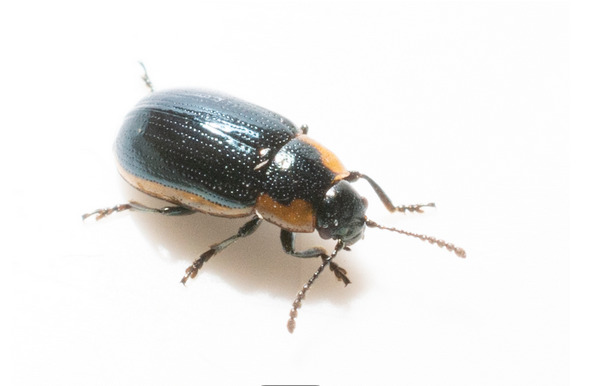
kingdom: Animalia
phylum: Arthropoda
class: Insecta
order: Coleoptera
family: Chrysomelidae
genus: Prasocuris
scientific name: Prasocuris marginella
